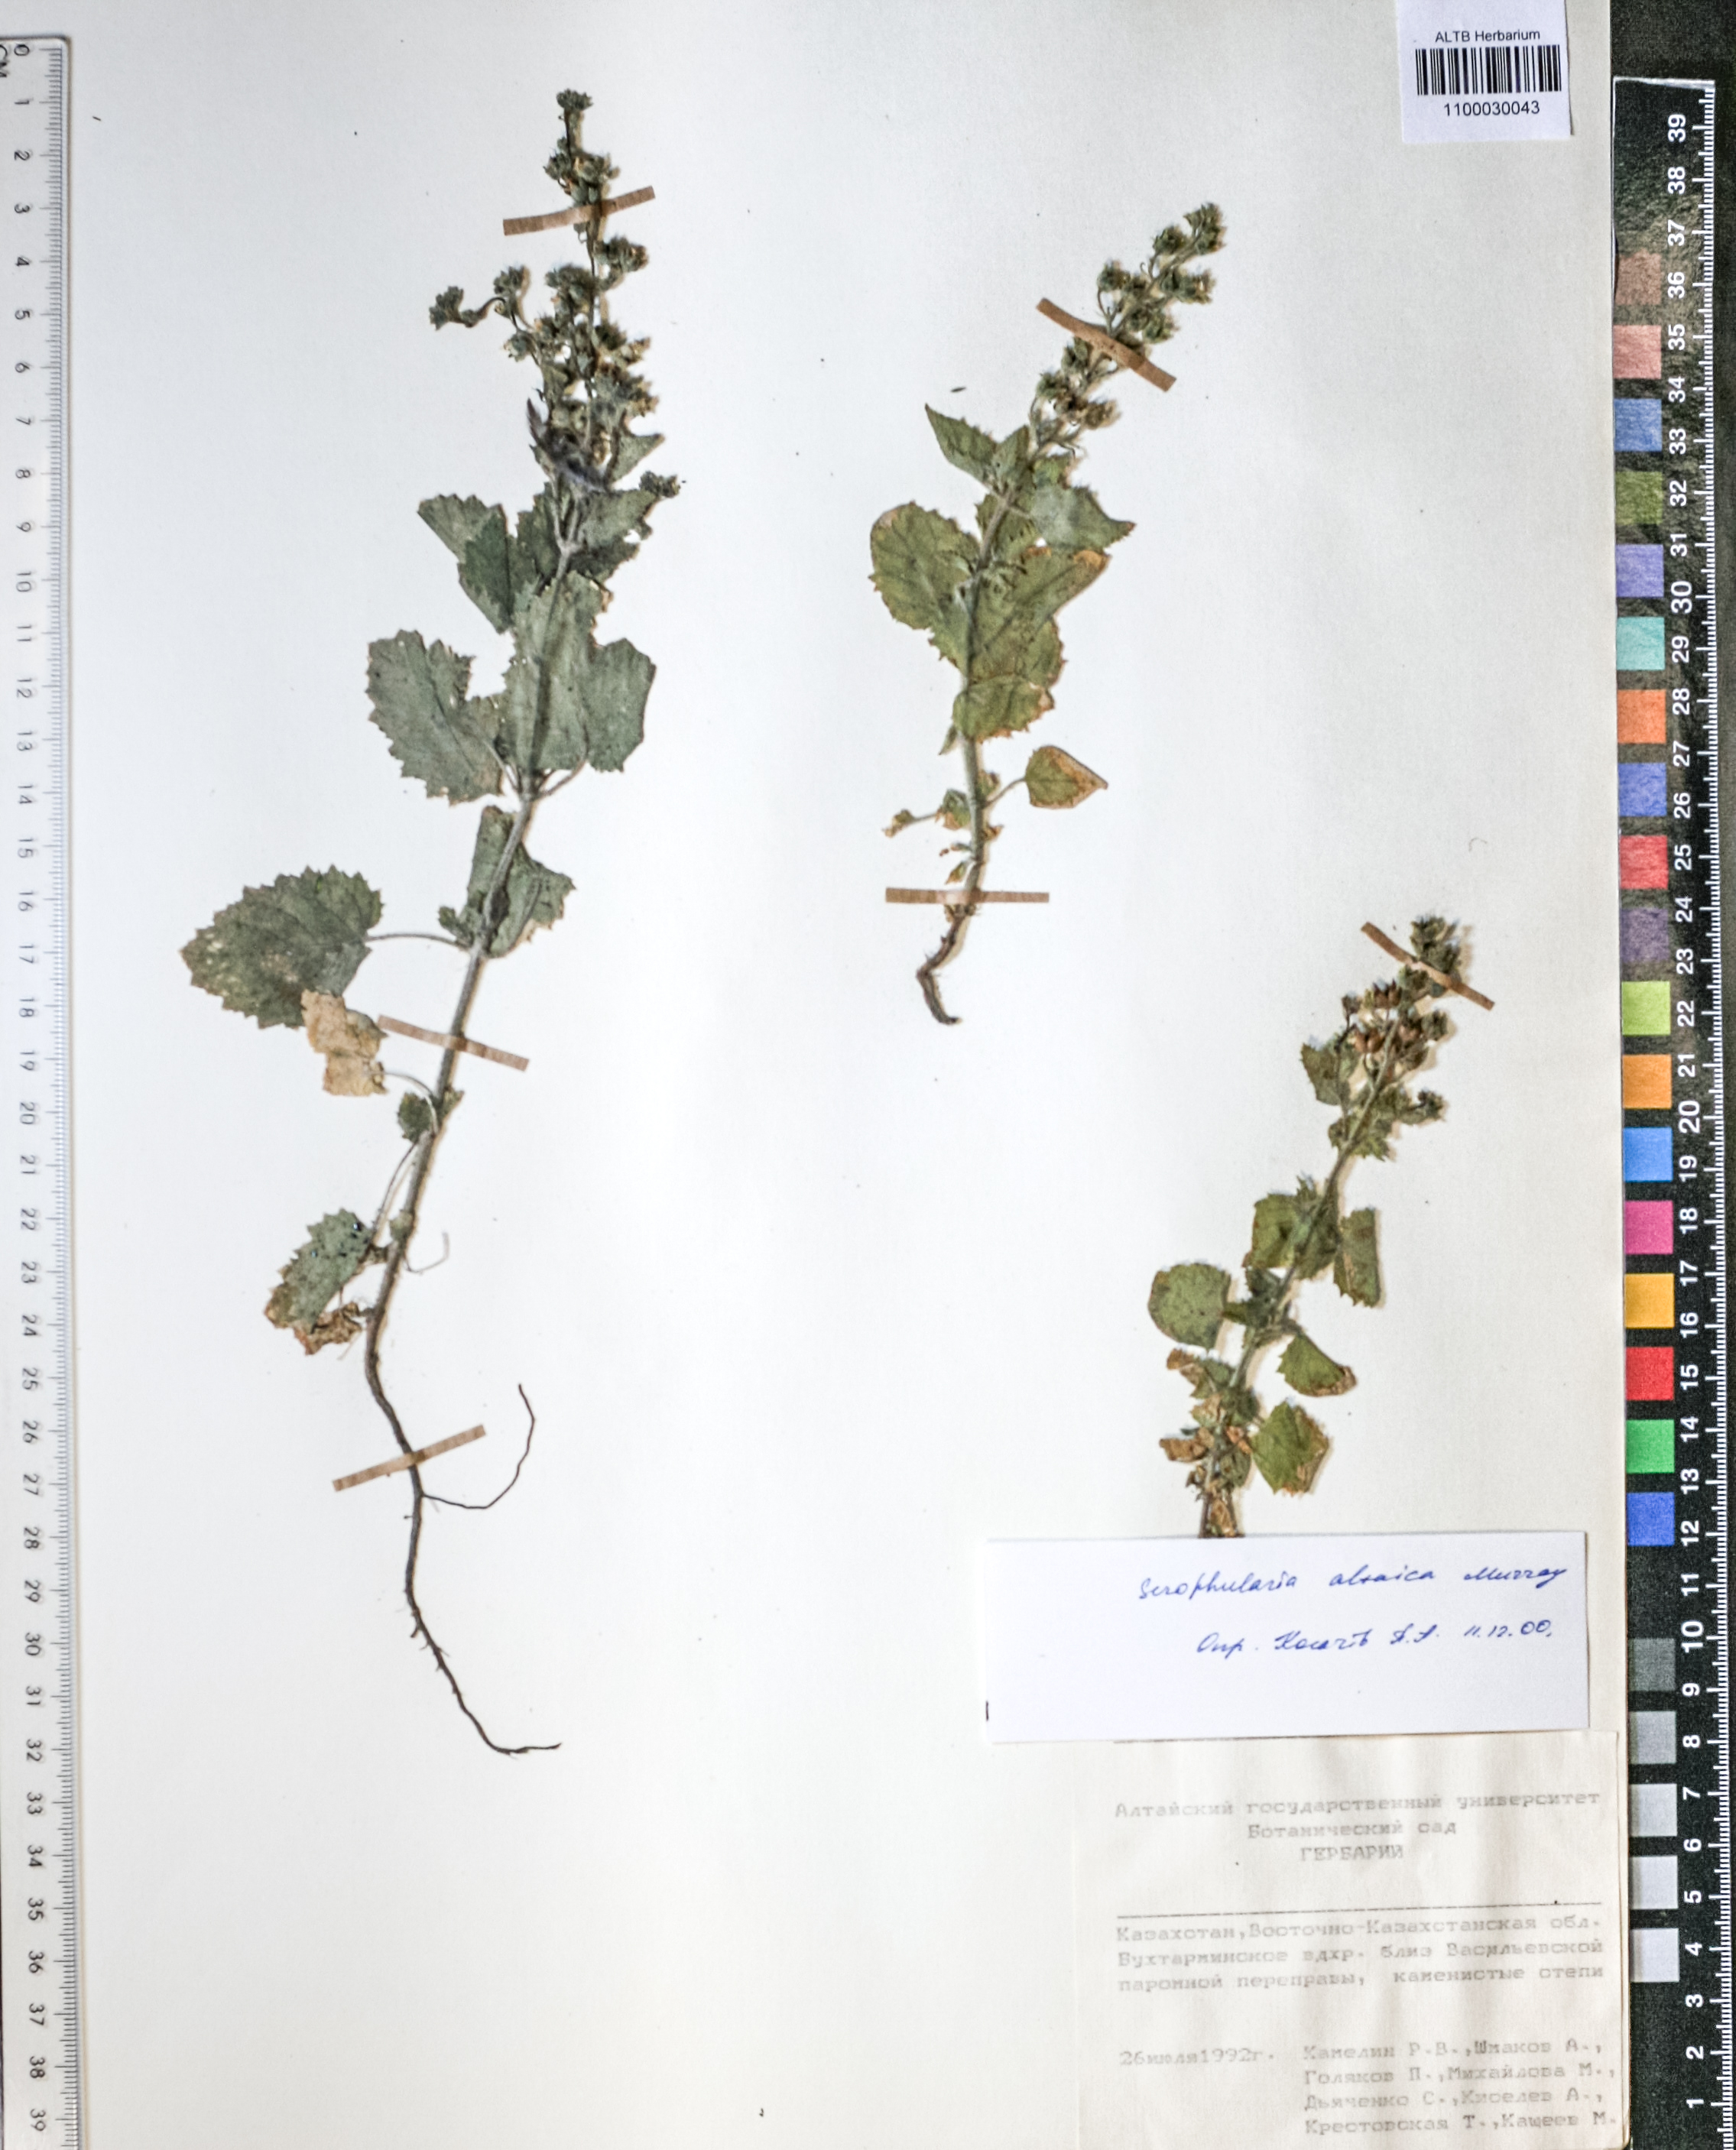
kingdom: Plantae
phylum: Tracheophyta
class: Magnoliopsida
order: Lamiales
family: Scrophulariaceae
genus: Scrophularia
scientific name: Scrophularia altaica
